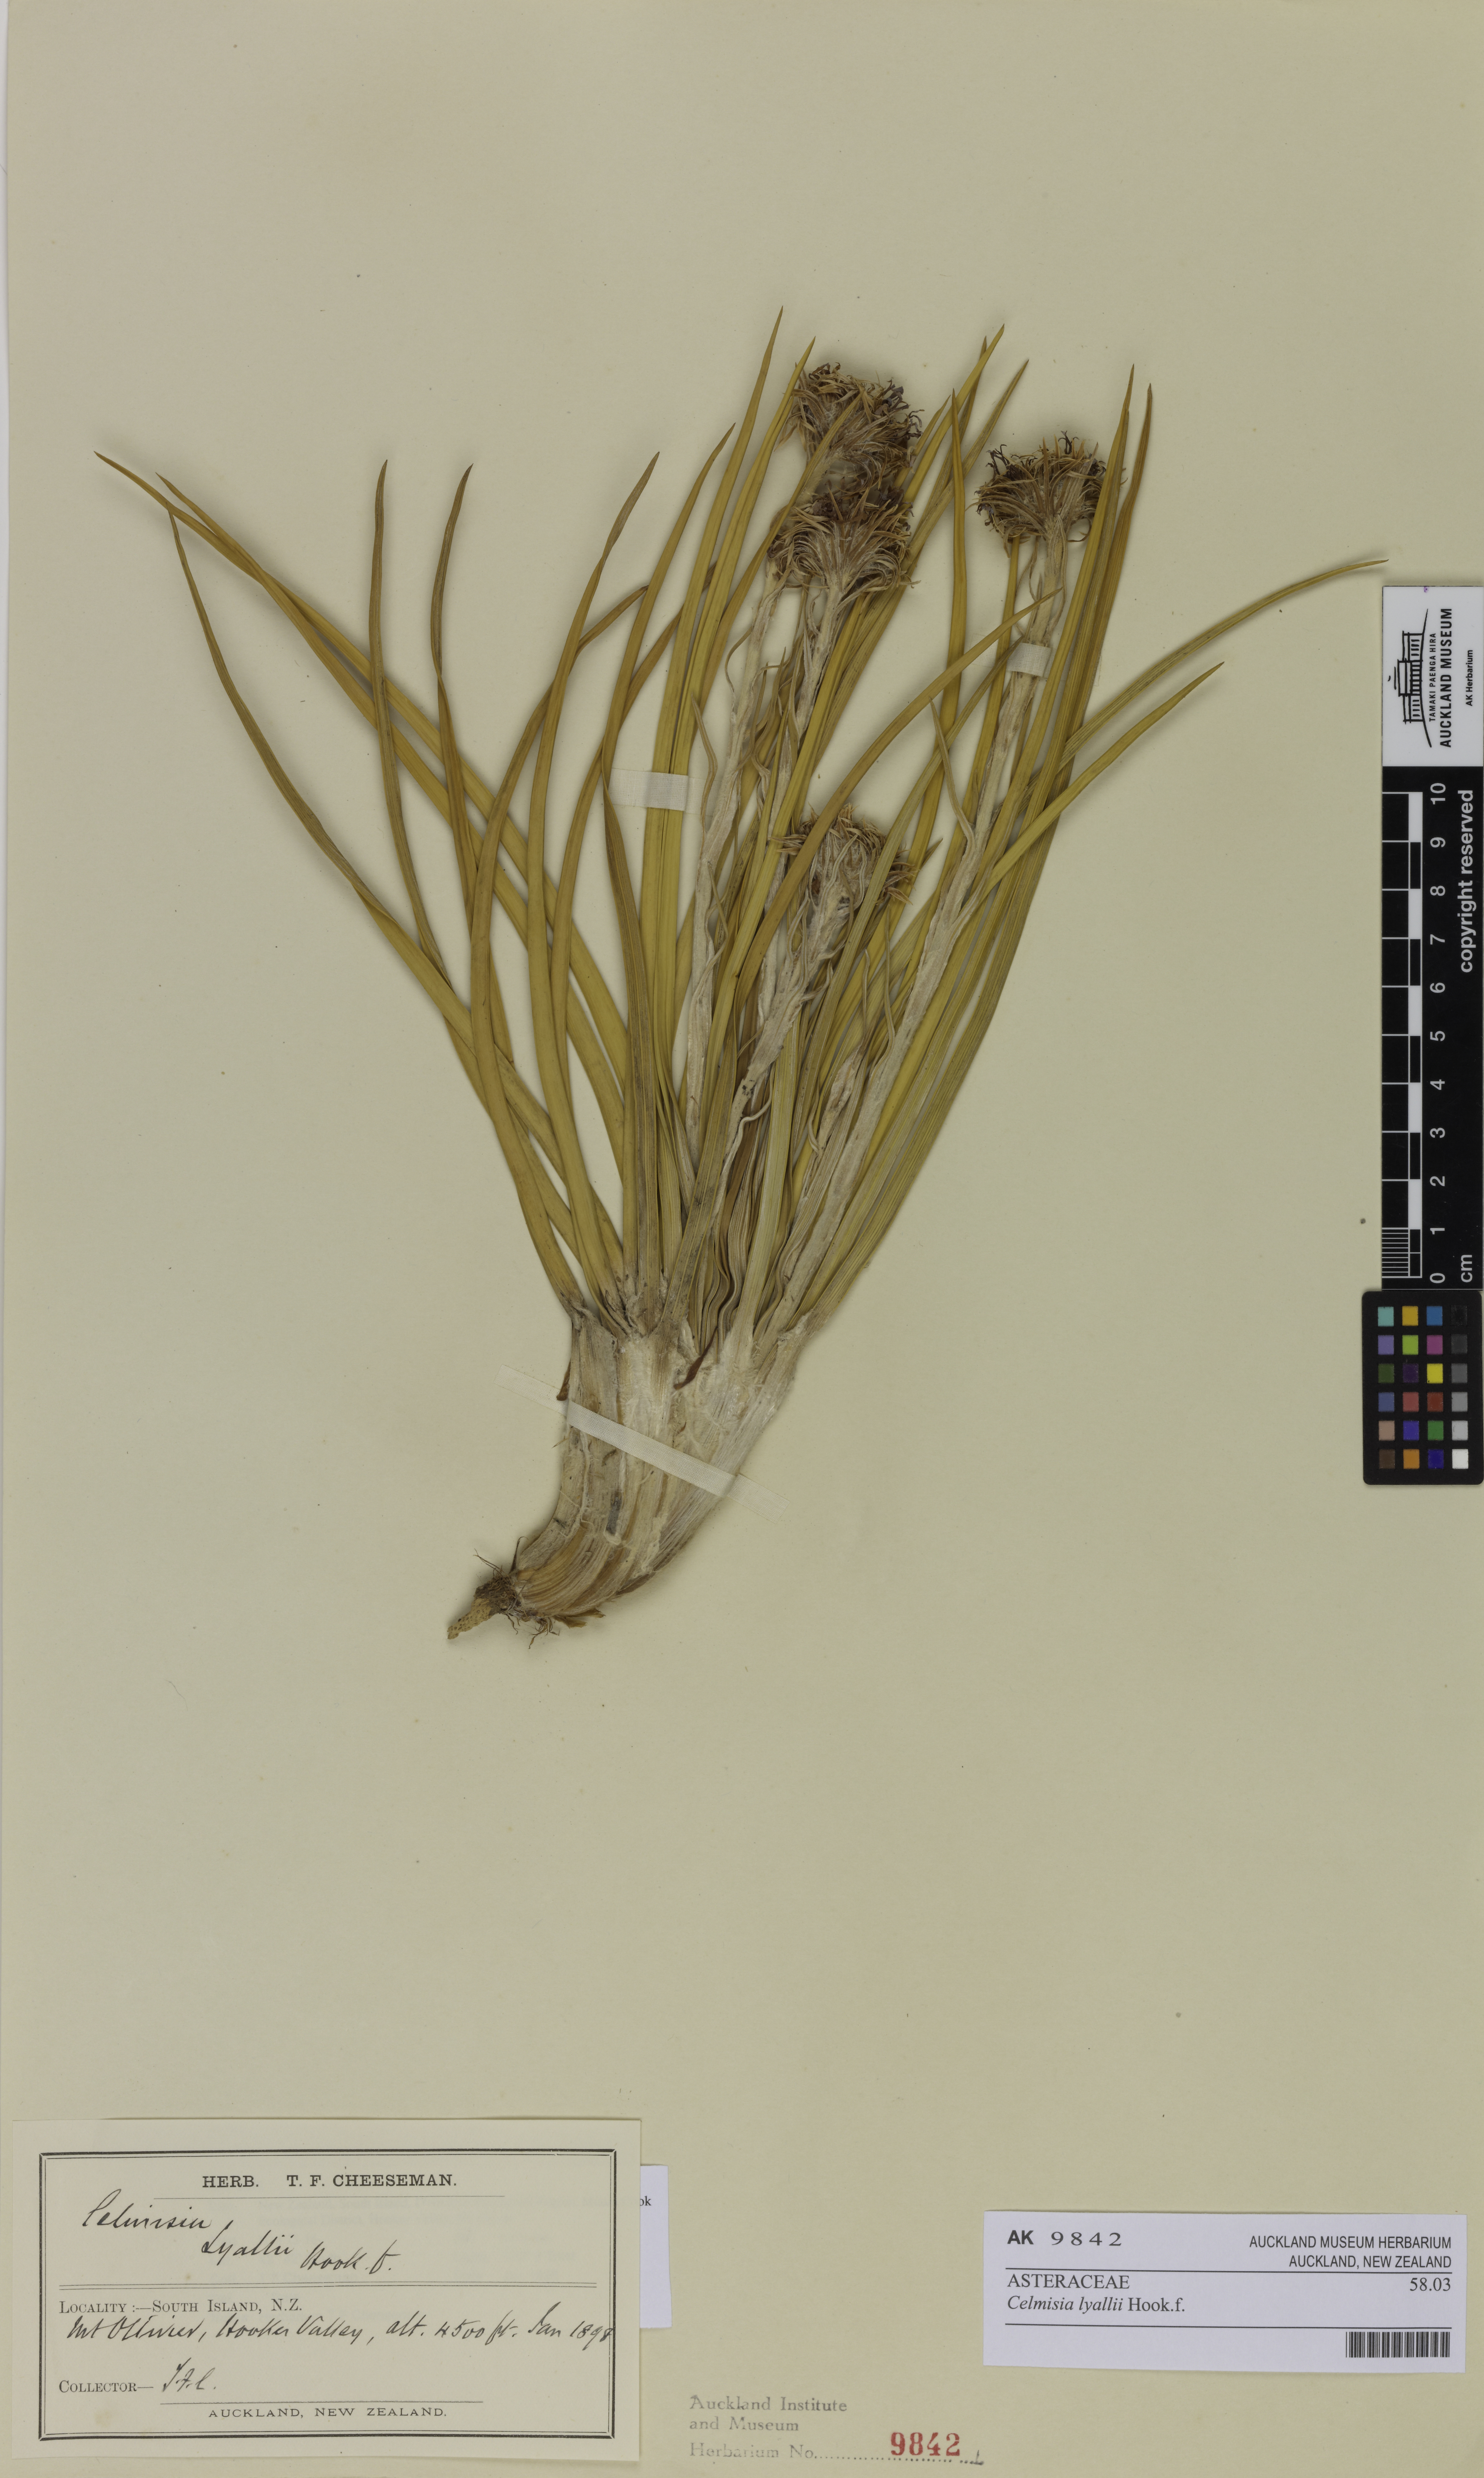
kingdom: Plantae
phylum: Tracheophyta
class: Magnoliopsida
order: Asterales
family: Asteraceae
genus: Celmisia
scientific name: Celmisia lyallii
